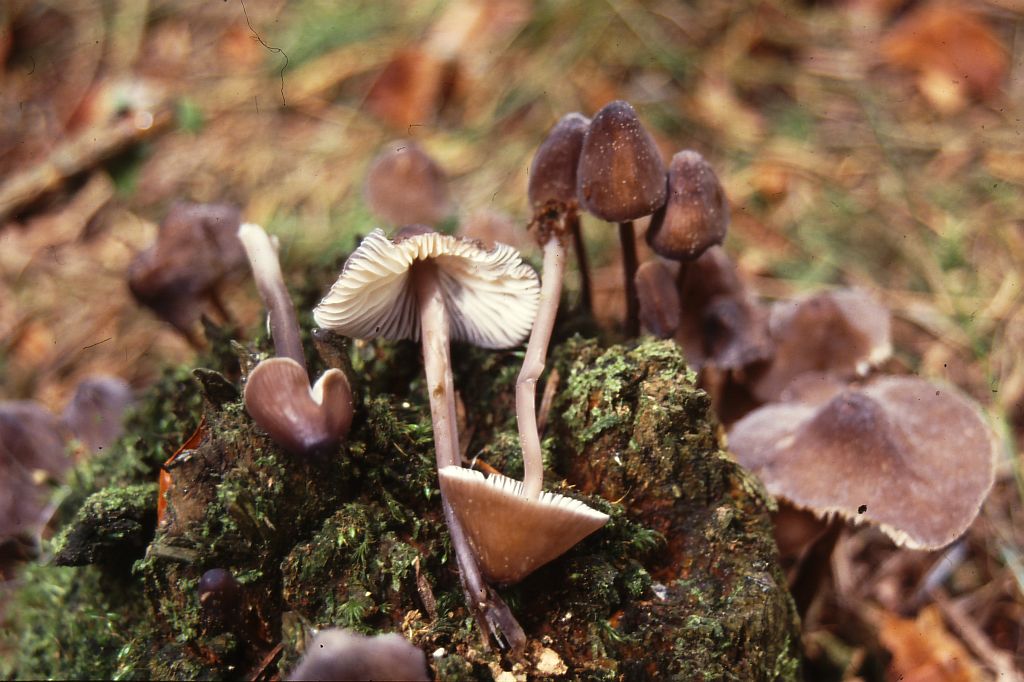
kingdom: Fungi
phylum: Basidiomycota
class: Agaricomycetes
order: Agaricales
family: Mycenaceae
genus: Mycena
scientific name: Mycena silvae-nigrae
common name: tidlig huesvamp
